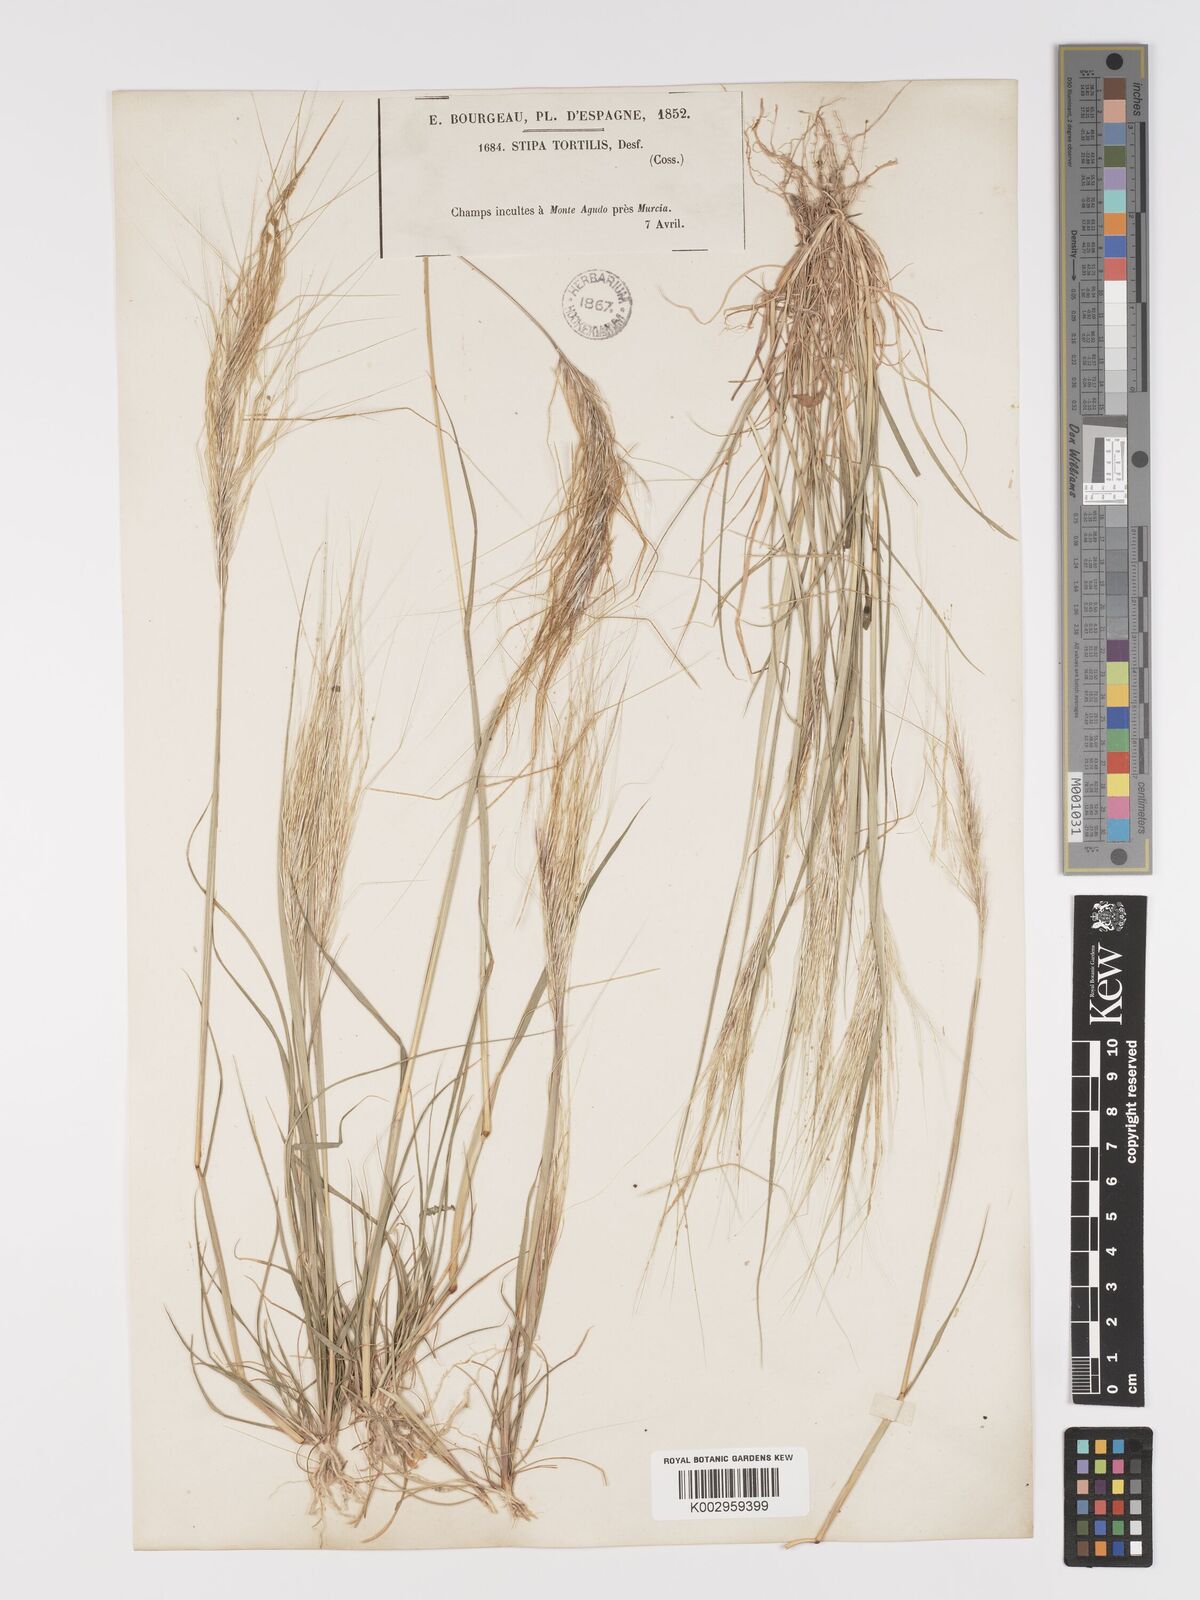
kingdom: Plantae
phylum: Tracheophyta
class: Liliopsida
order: Poales
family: Poaceae
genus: Stipellula
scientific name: Stipellula capensis
